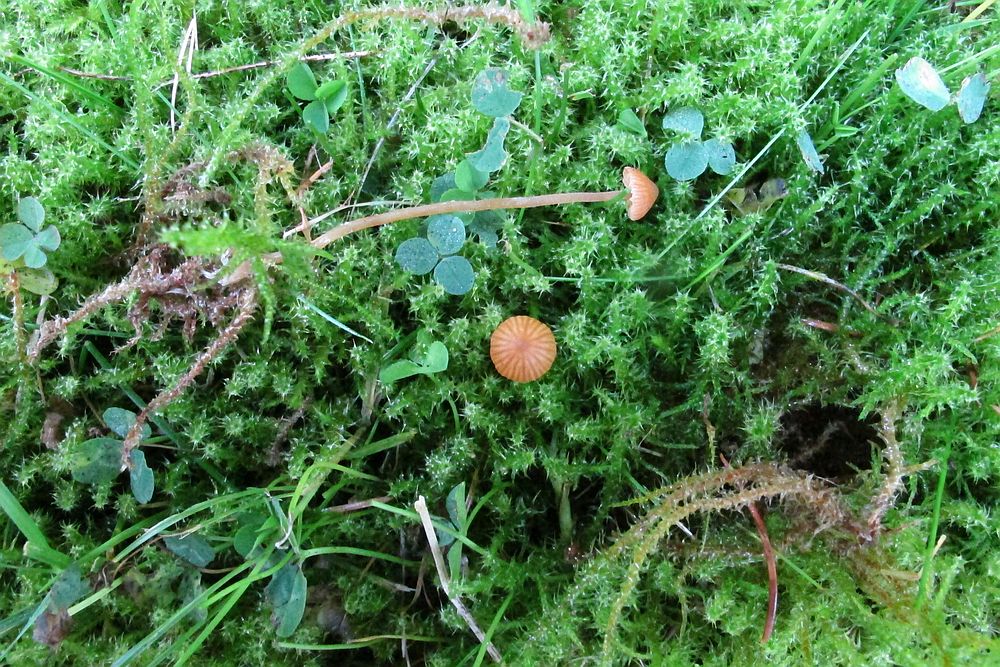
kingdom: Fungi
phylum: Basidiomycota
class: Agaricomycetes
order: Agaricales
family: Hymenogastraceae
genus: Galerina
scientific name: Galerina
